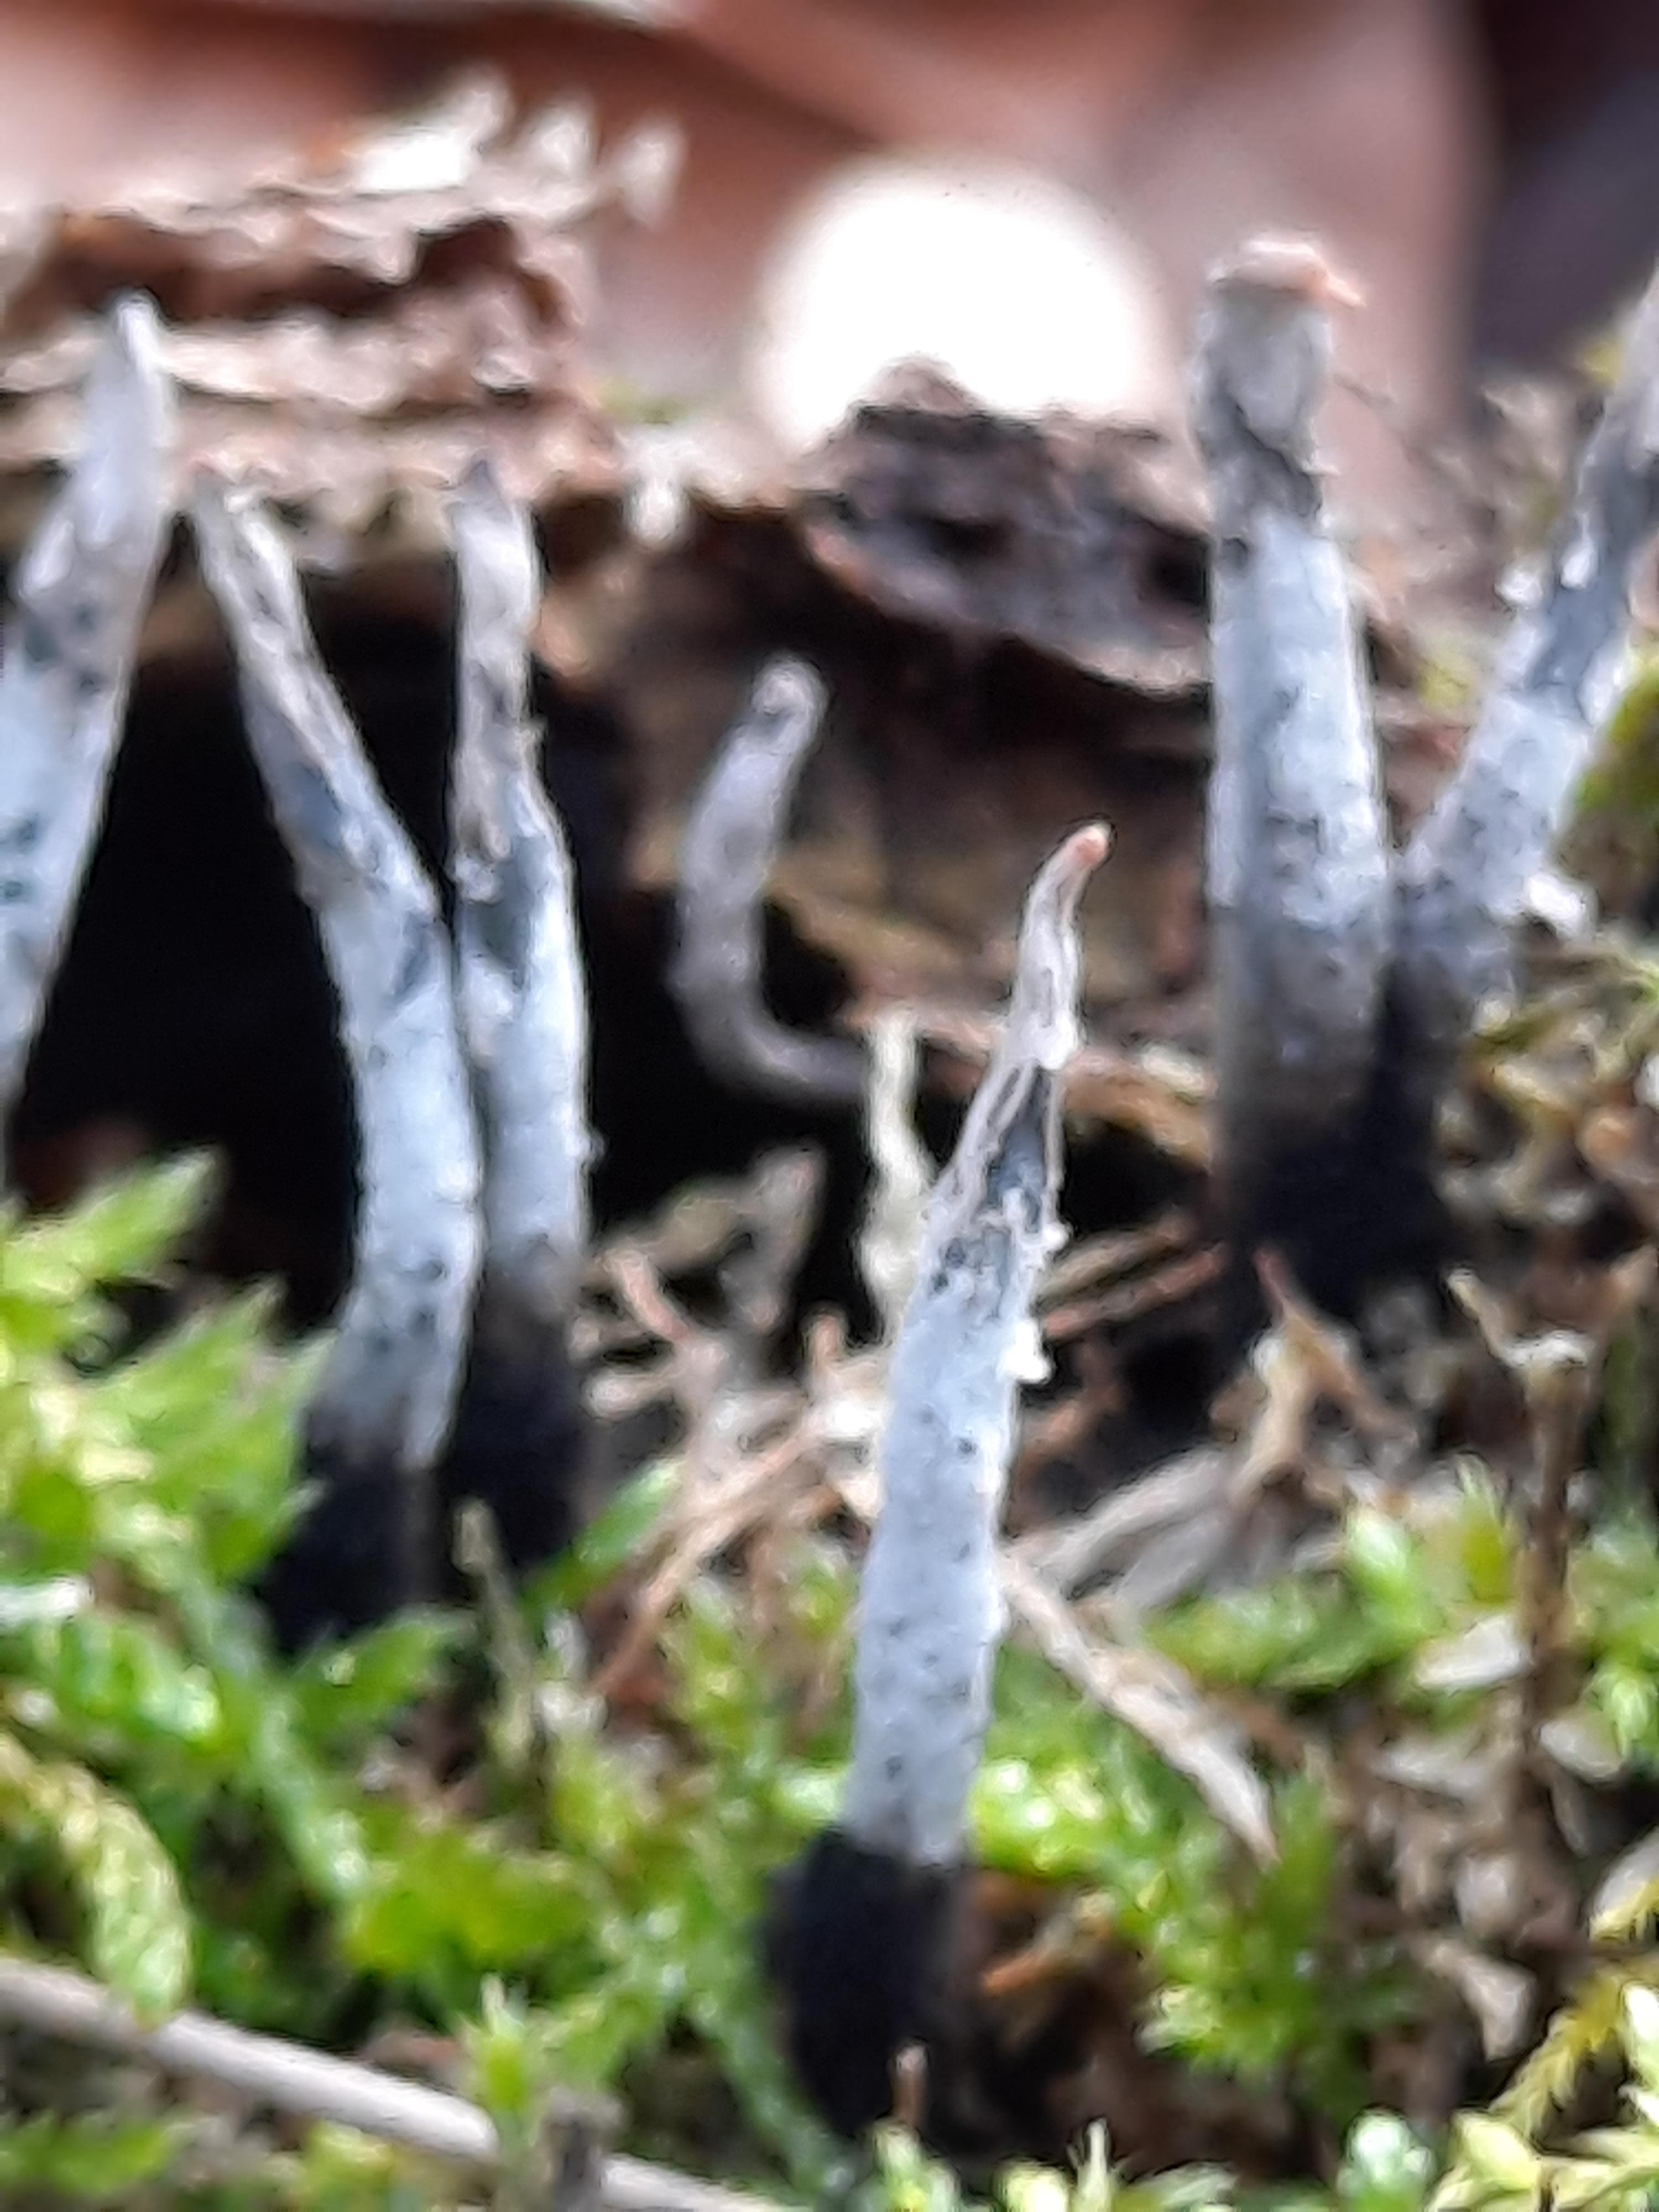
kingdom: Fungi
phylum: Ascomycota
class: Sordariomycetes
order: Xylariales
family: Xylariaceae
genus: Xylaria
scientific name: Xylaria hypoxylon
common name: grenet stødsvamp
